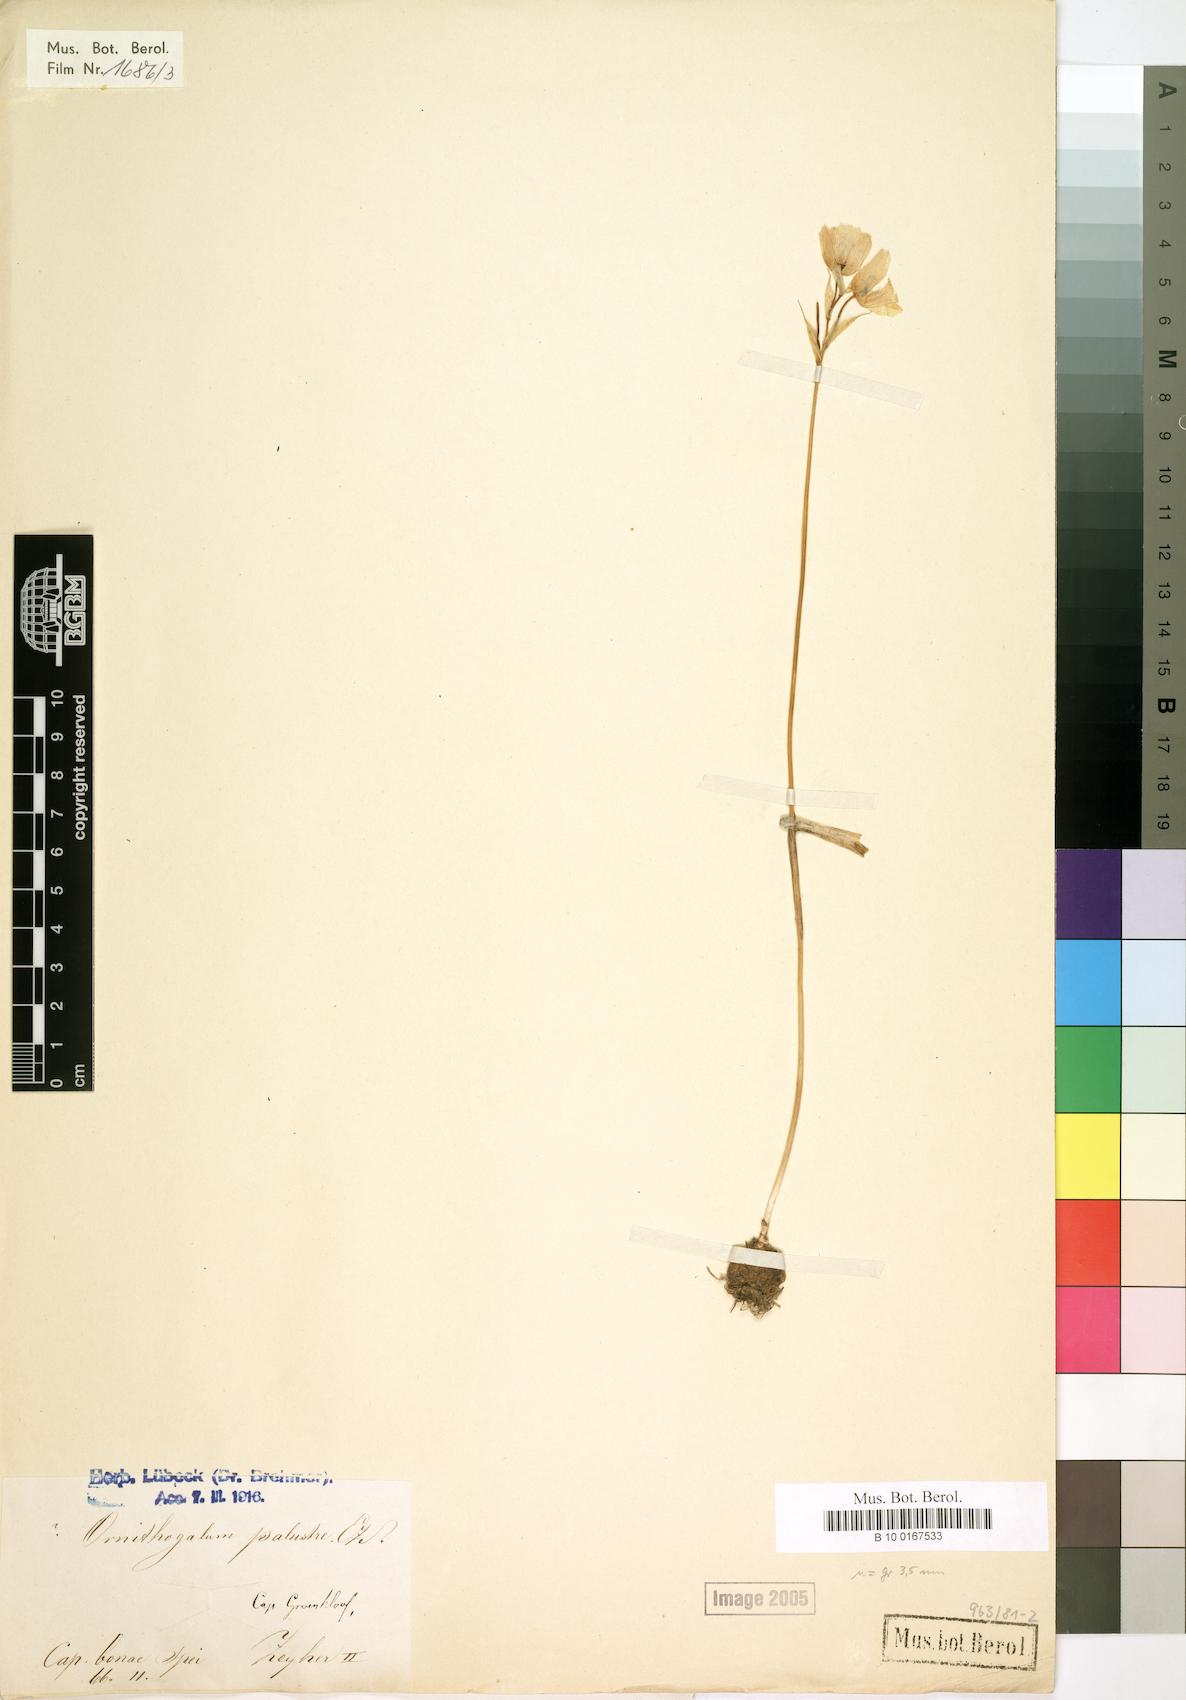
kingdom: Plantae
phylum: Tracheophyta
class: Liliopsida
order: Asparagales
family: Asparagaceae
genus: Ornithogalum
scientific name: Ornithogalum palustre
